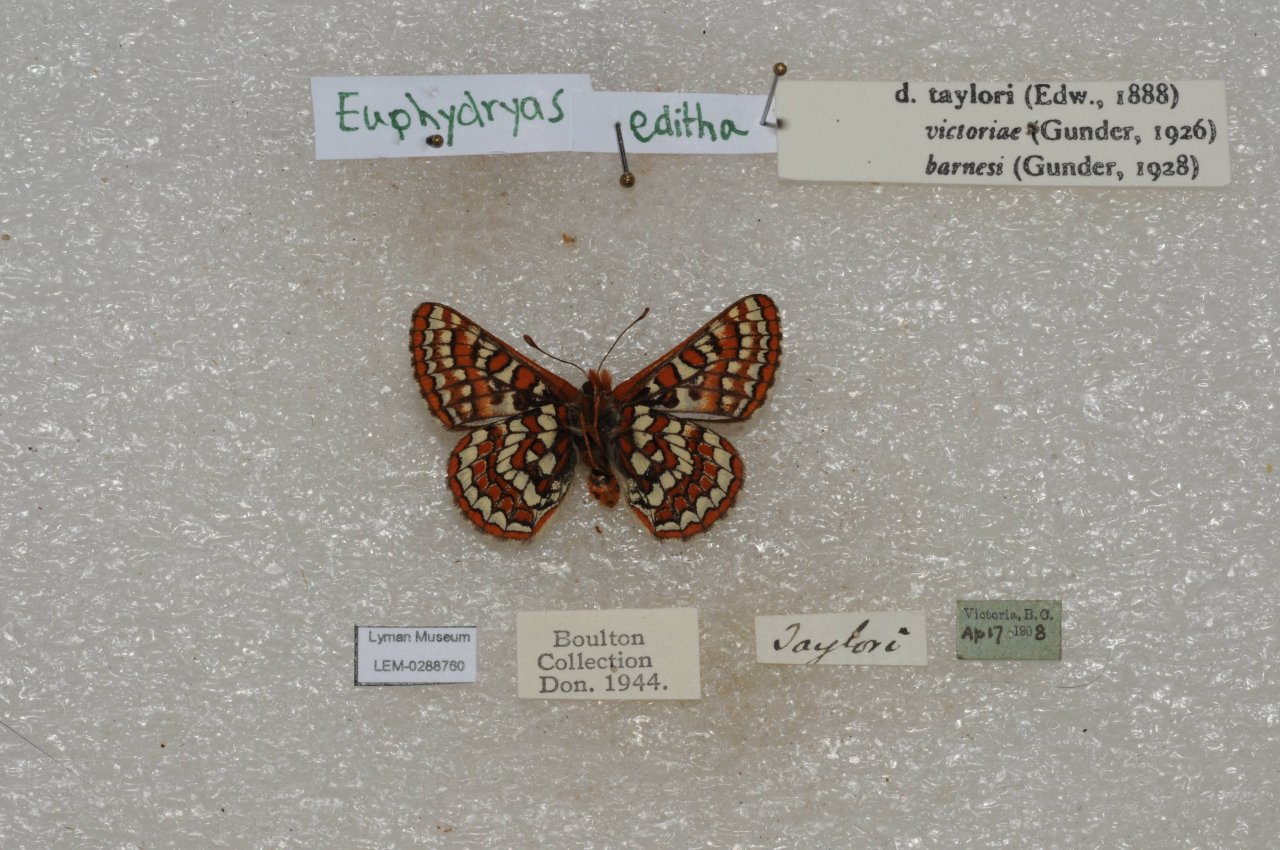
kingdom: Animalia
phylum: Arthropoda
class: Insecta
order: Lepidoptera
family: Nymphalidae
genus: Occidryas
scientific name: Occidryas editha
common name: Edith's Checkerspot
